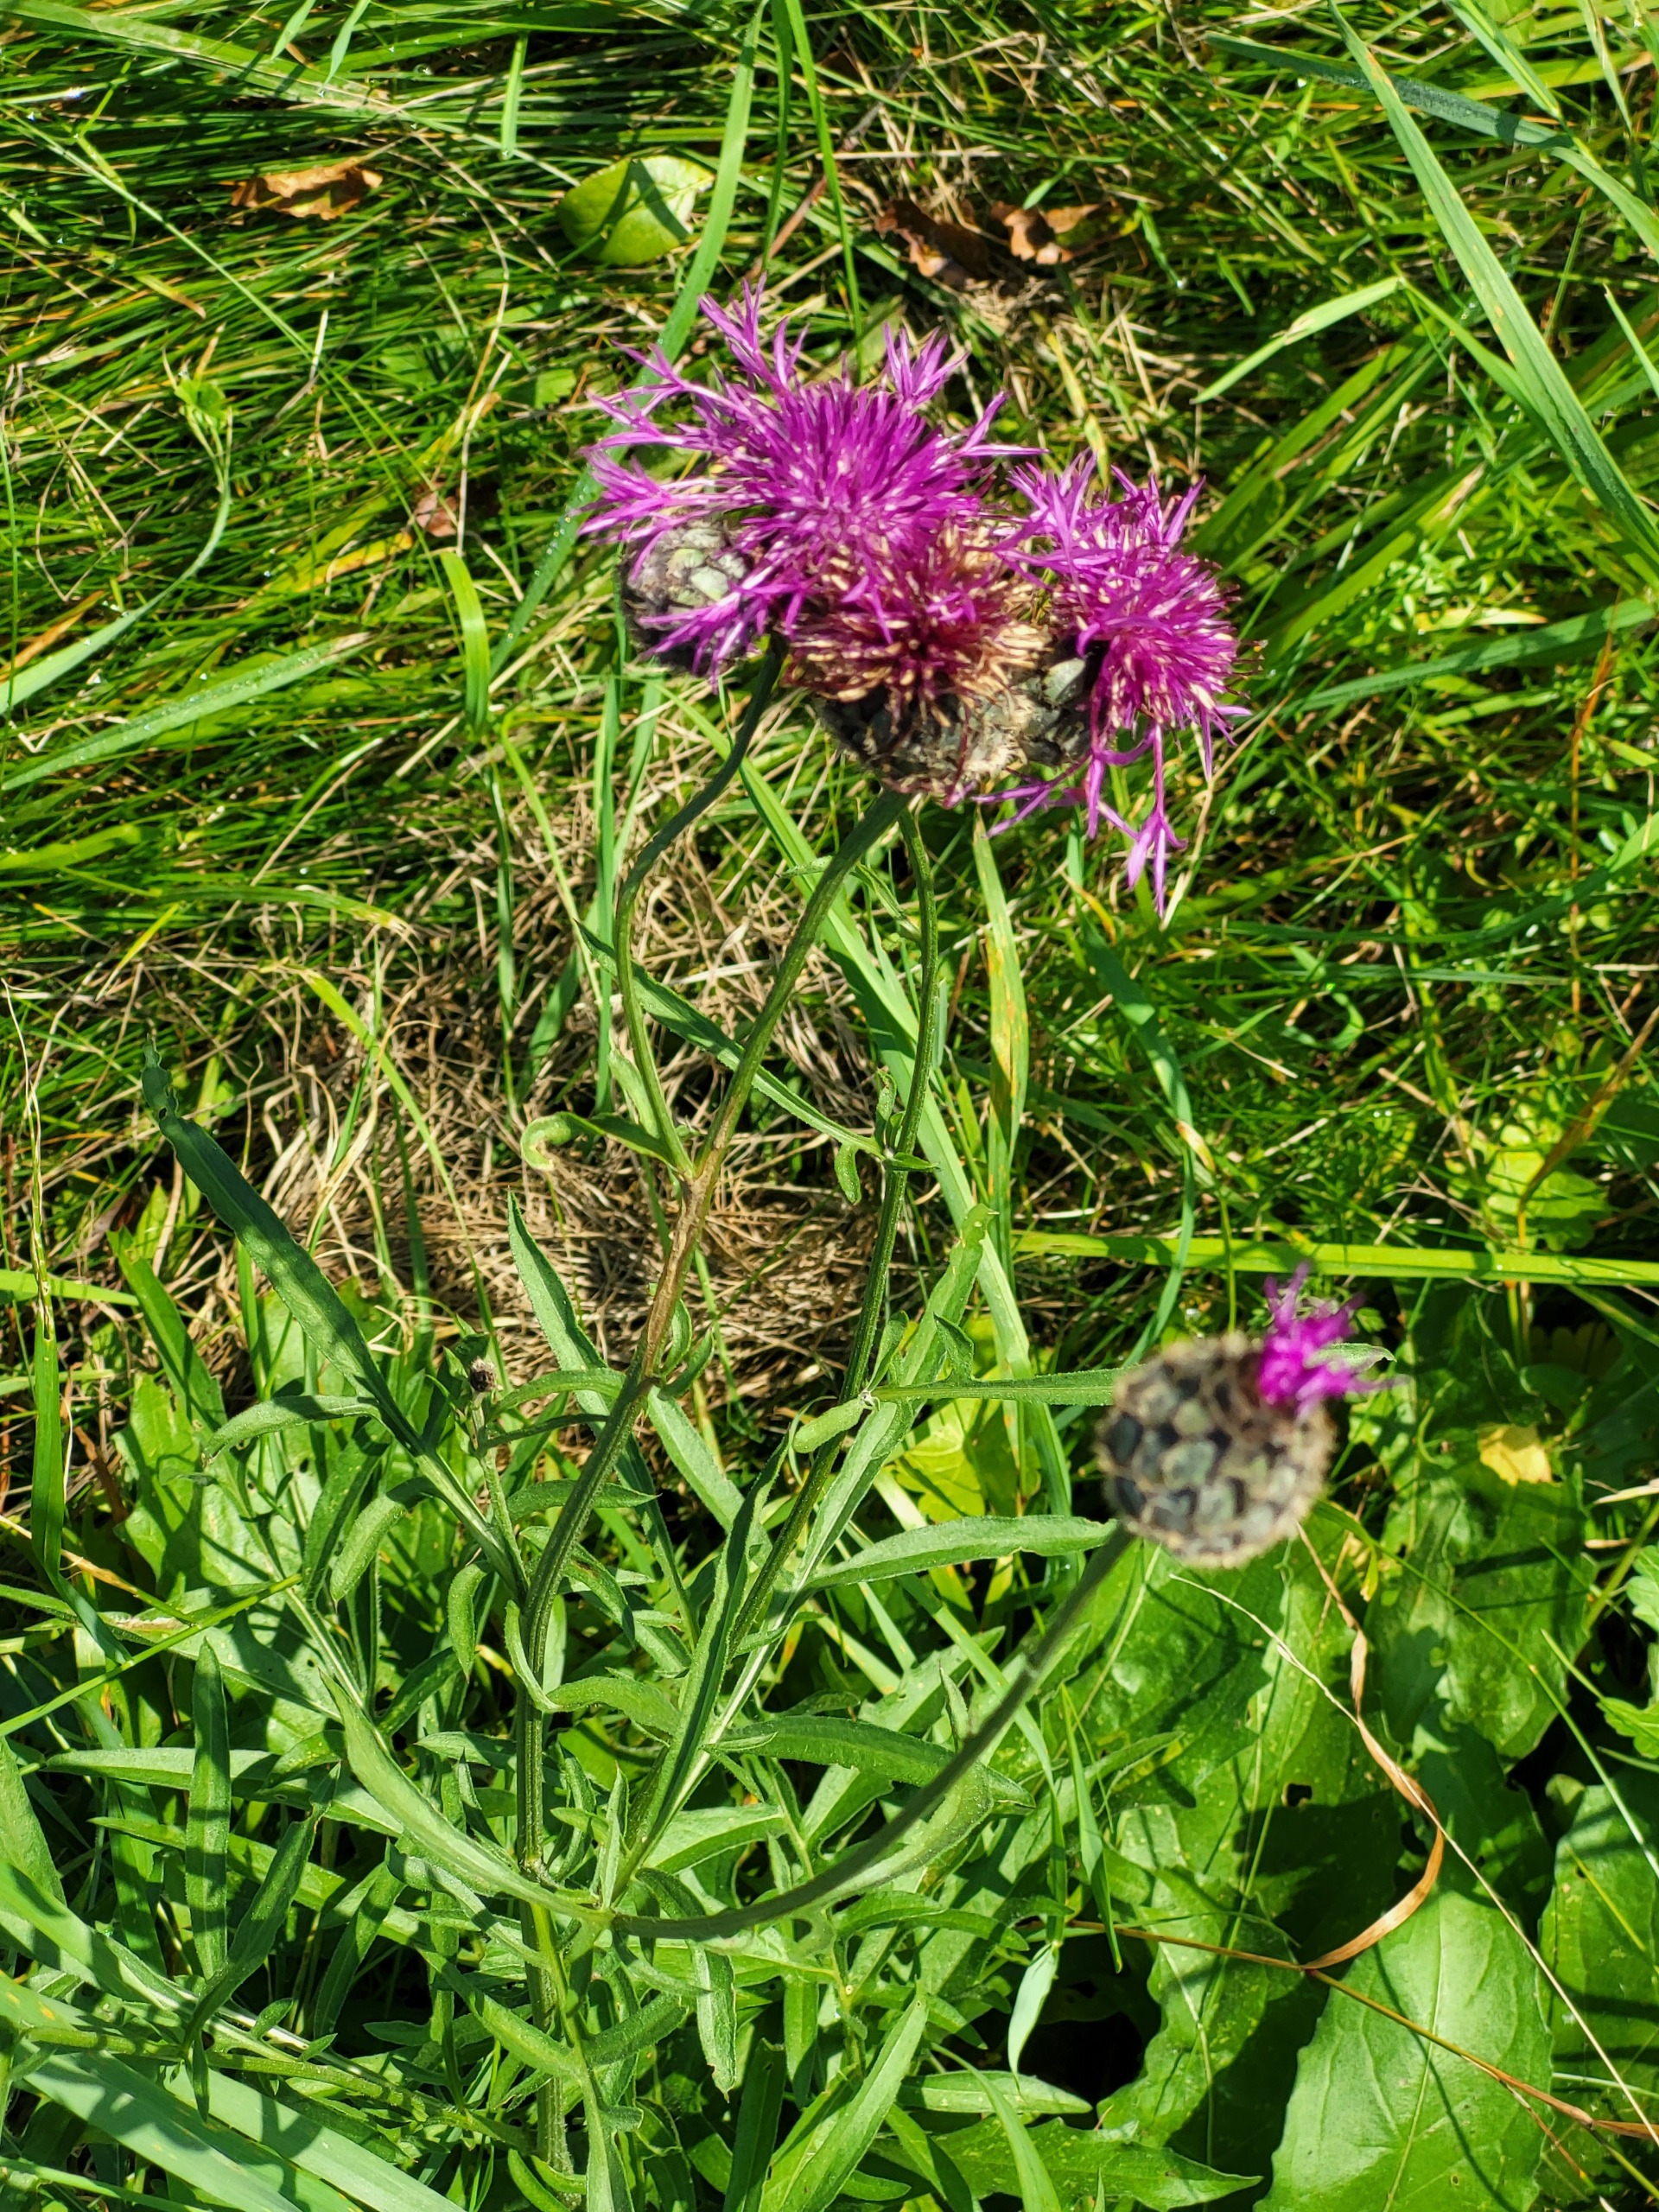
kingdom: Plantae
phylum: Tracheophyta
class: Magnoliopsida
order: Asterales
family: Asteraceae
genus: Centaurea
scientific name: Centaurea scabiosa
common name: Stor knopurt
